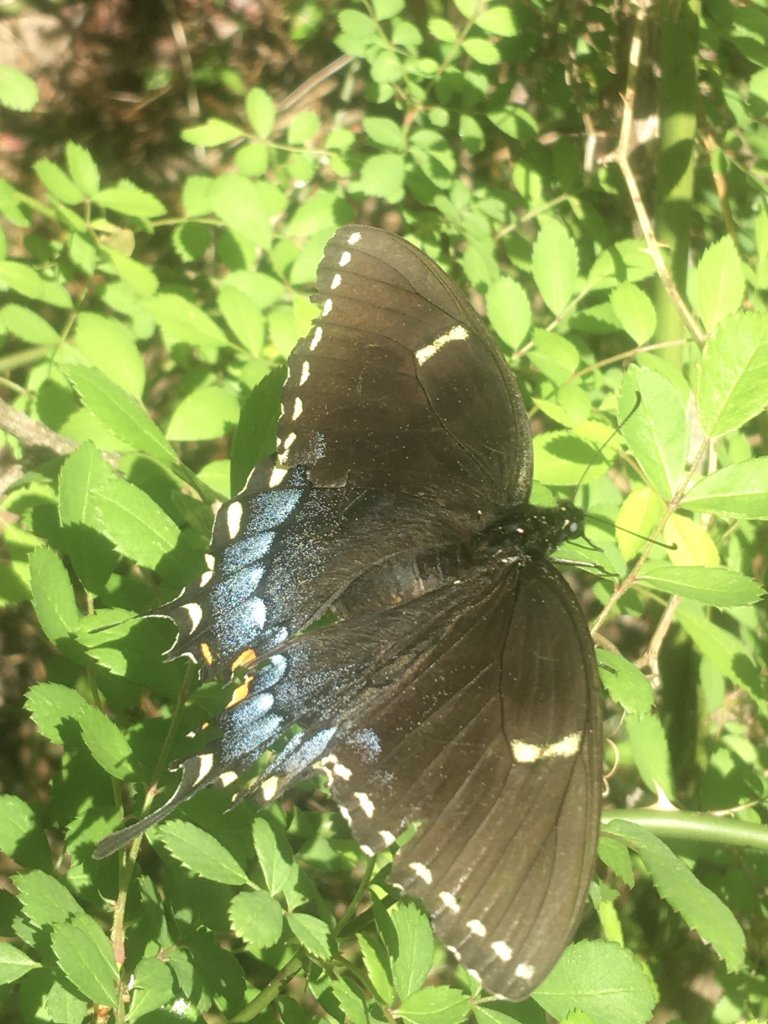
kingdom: Animalia
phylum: Arthropoda
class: Insecta
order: Lepidoptera
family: Papilionidae
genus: Pterourus
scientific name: Pterourus glaucus
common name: Eastern Tiger Swallowtail
